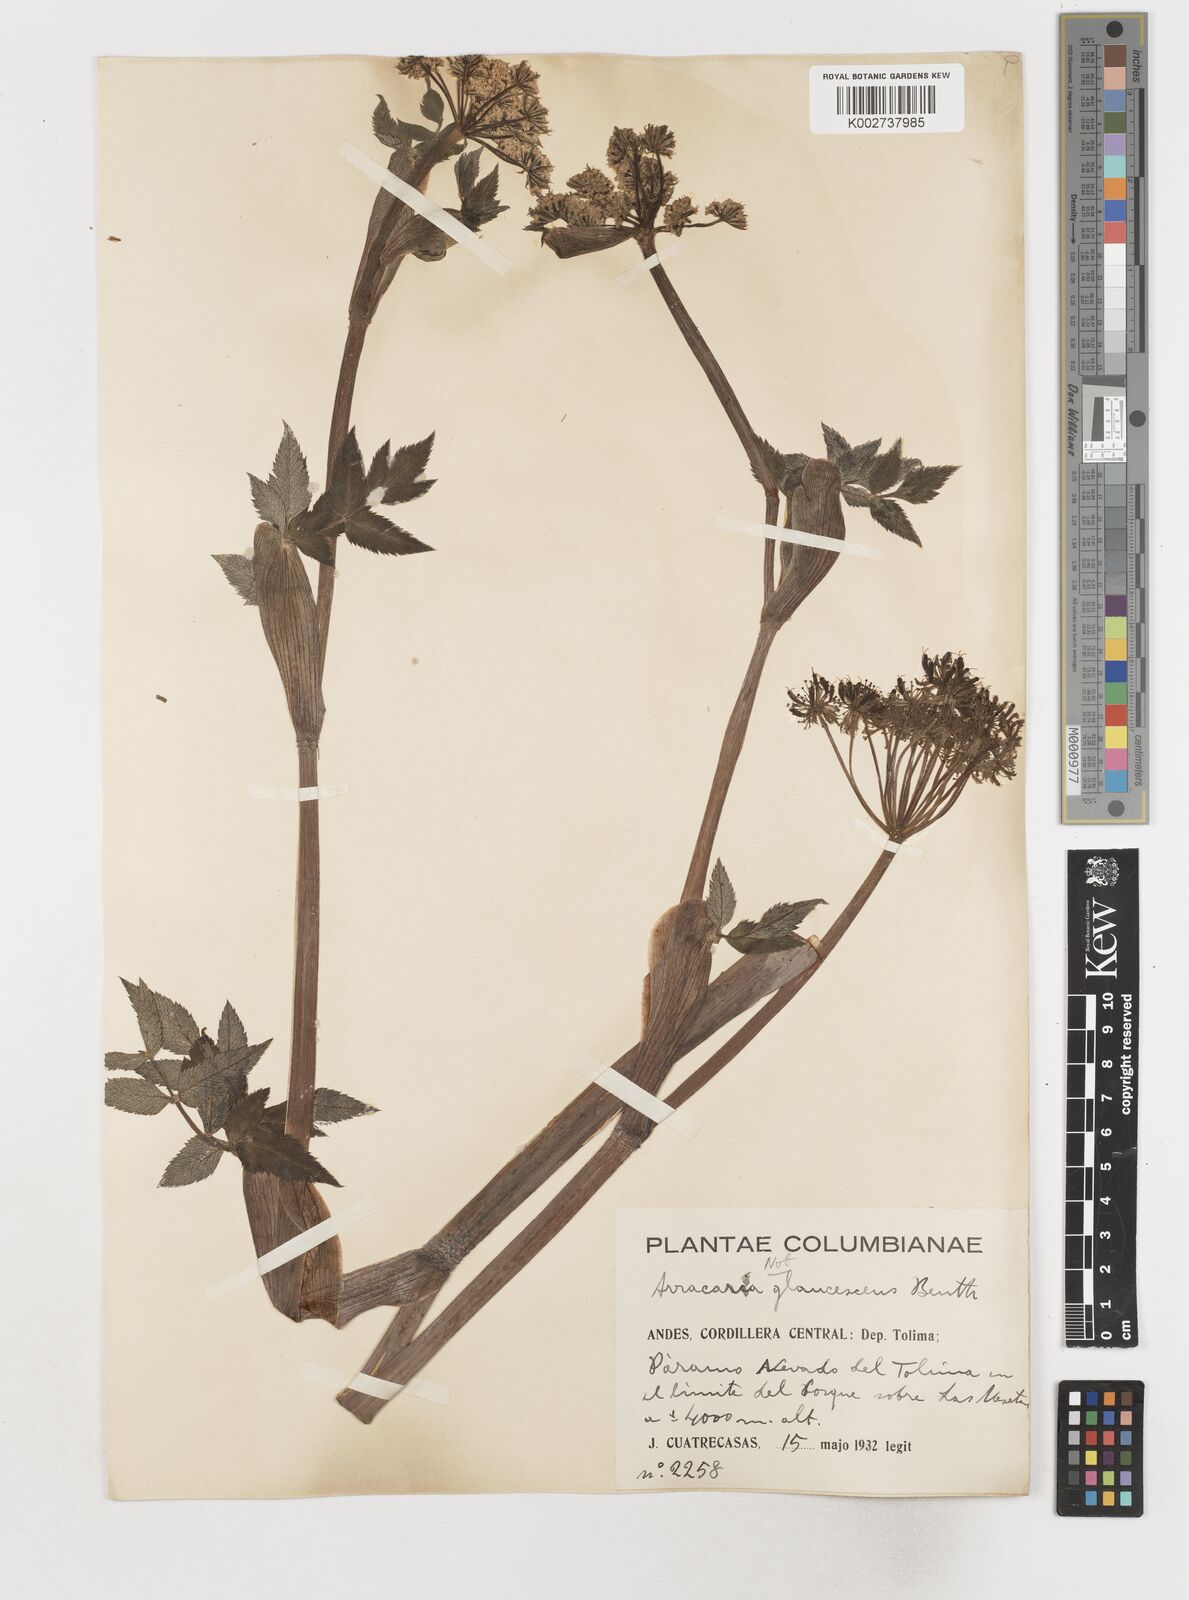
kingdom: Plantae
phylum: Tracheophyta
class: Magnoliopsida
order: Apiales
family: Apiaceae
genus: Myrrhidendron
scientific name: Myrrhidendron pennellii
